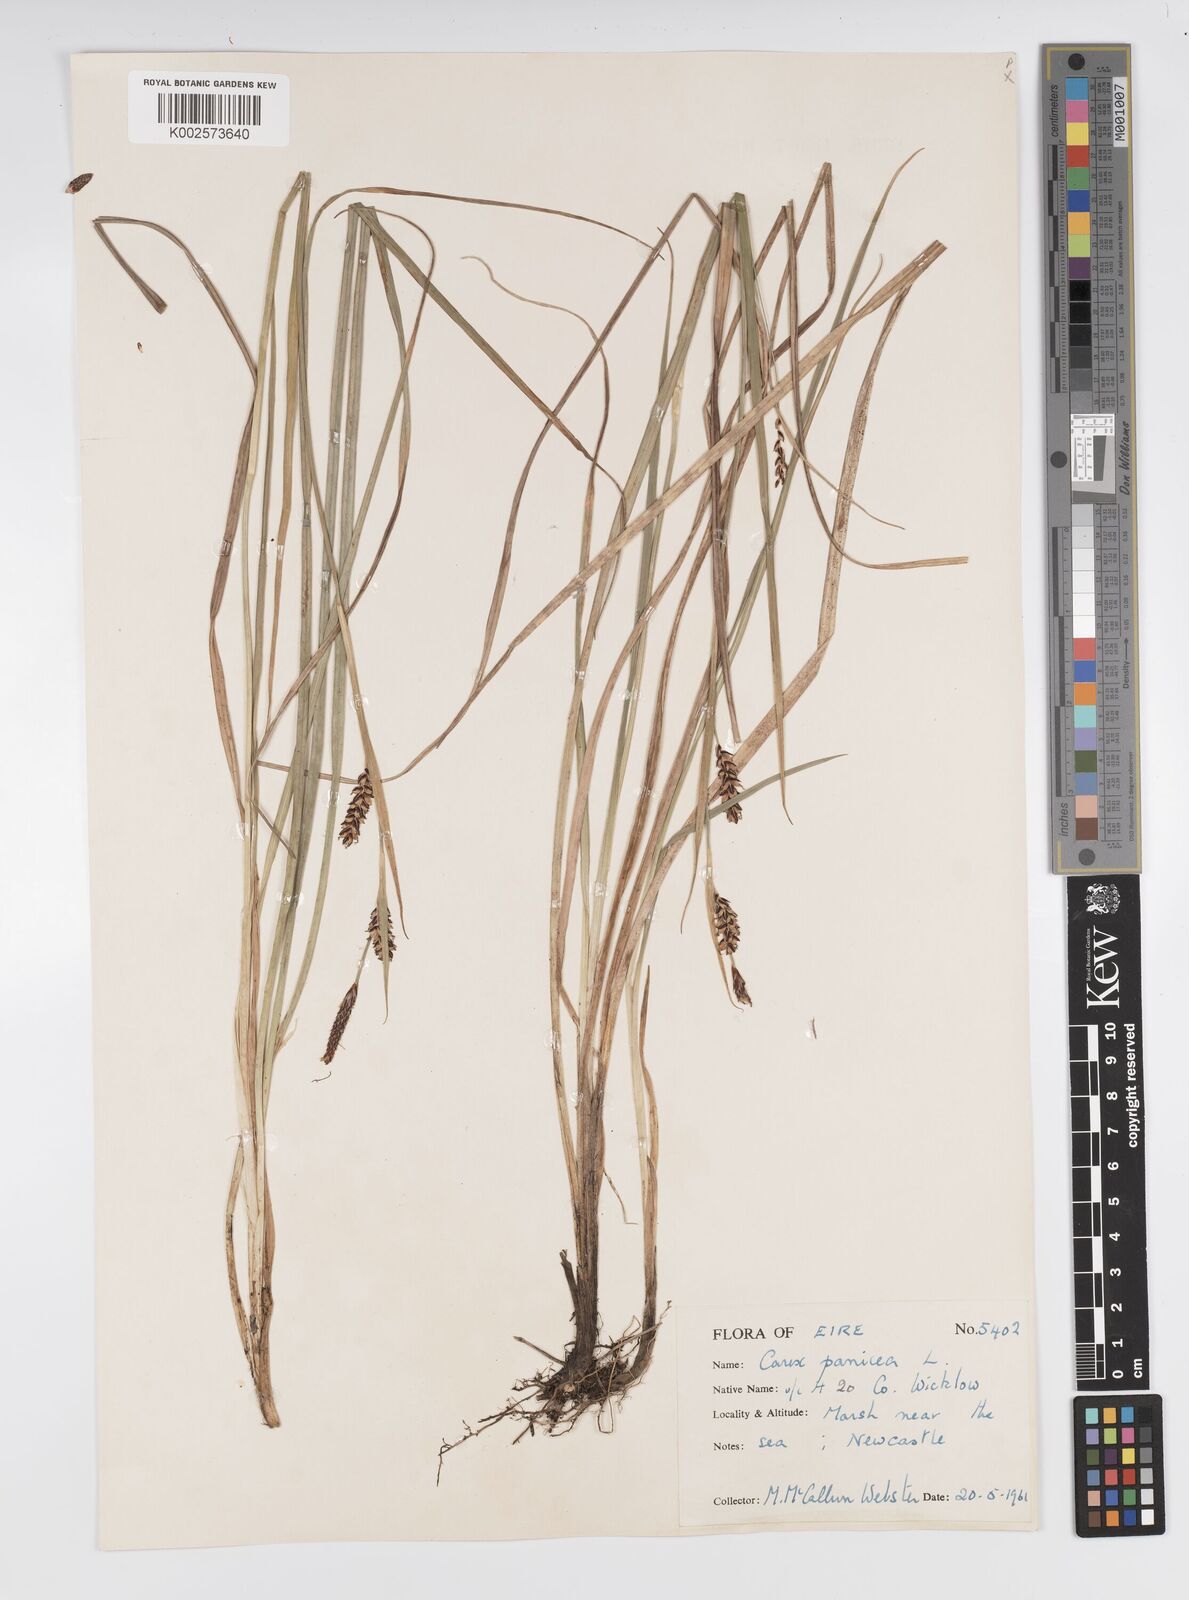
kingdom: Plantae
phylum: Tracheophyta
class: Liliopsida
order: Poales
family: Cyperaceae
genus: Carex
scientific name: Carex panicea
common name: Carnation sedge
